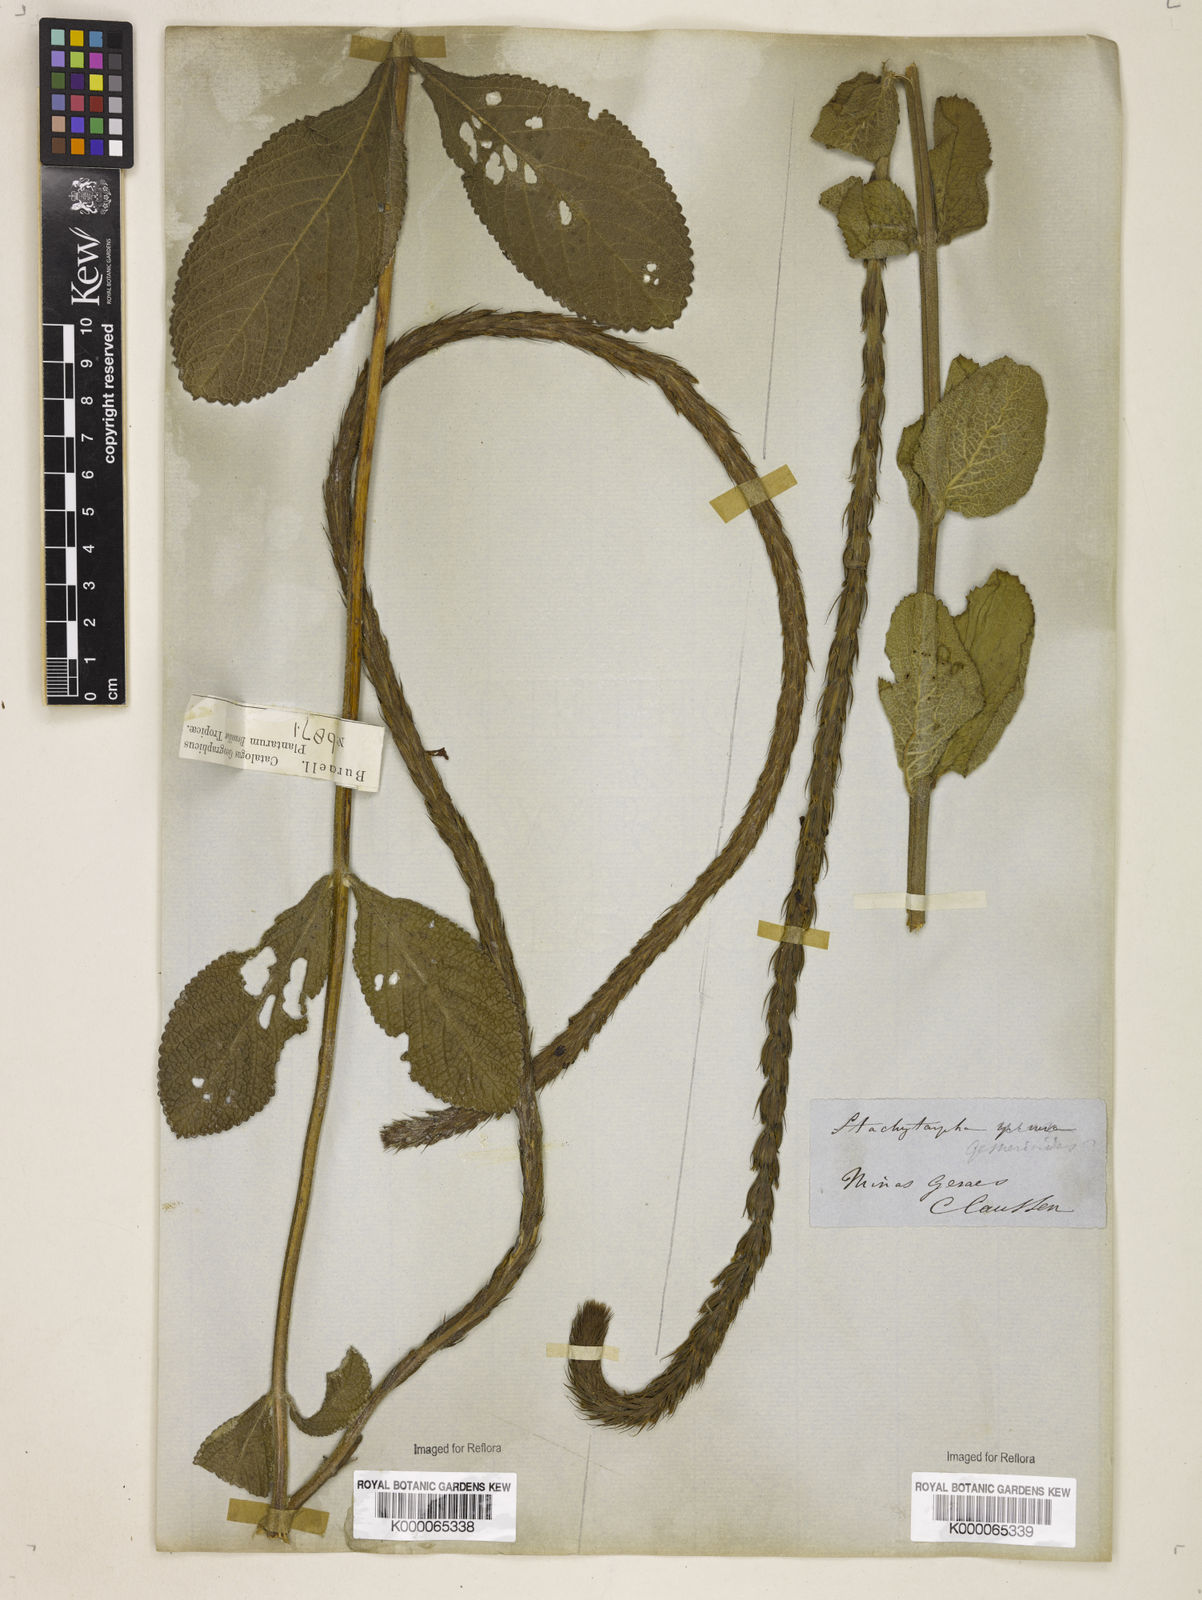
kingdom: Plantae
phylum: Tracheophyta
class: Magnoliopsida
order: Lamiales
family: Verbenaceae
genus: Stachytarpheta
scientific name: Stachytarpheta gesnerioides
